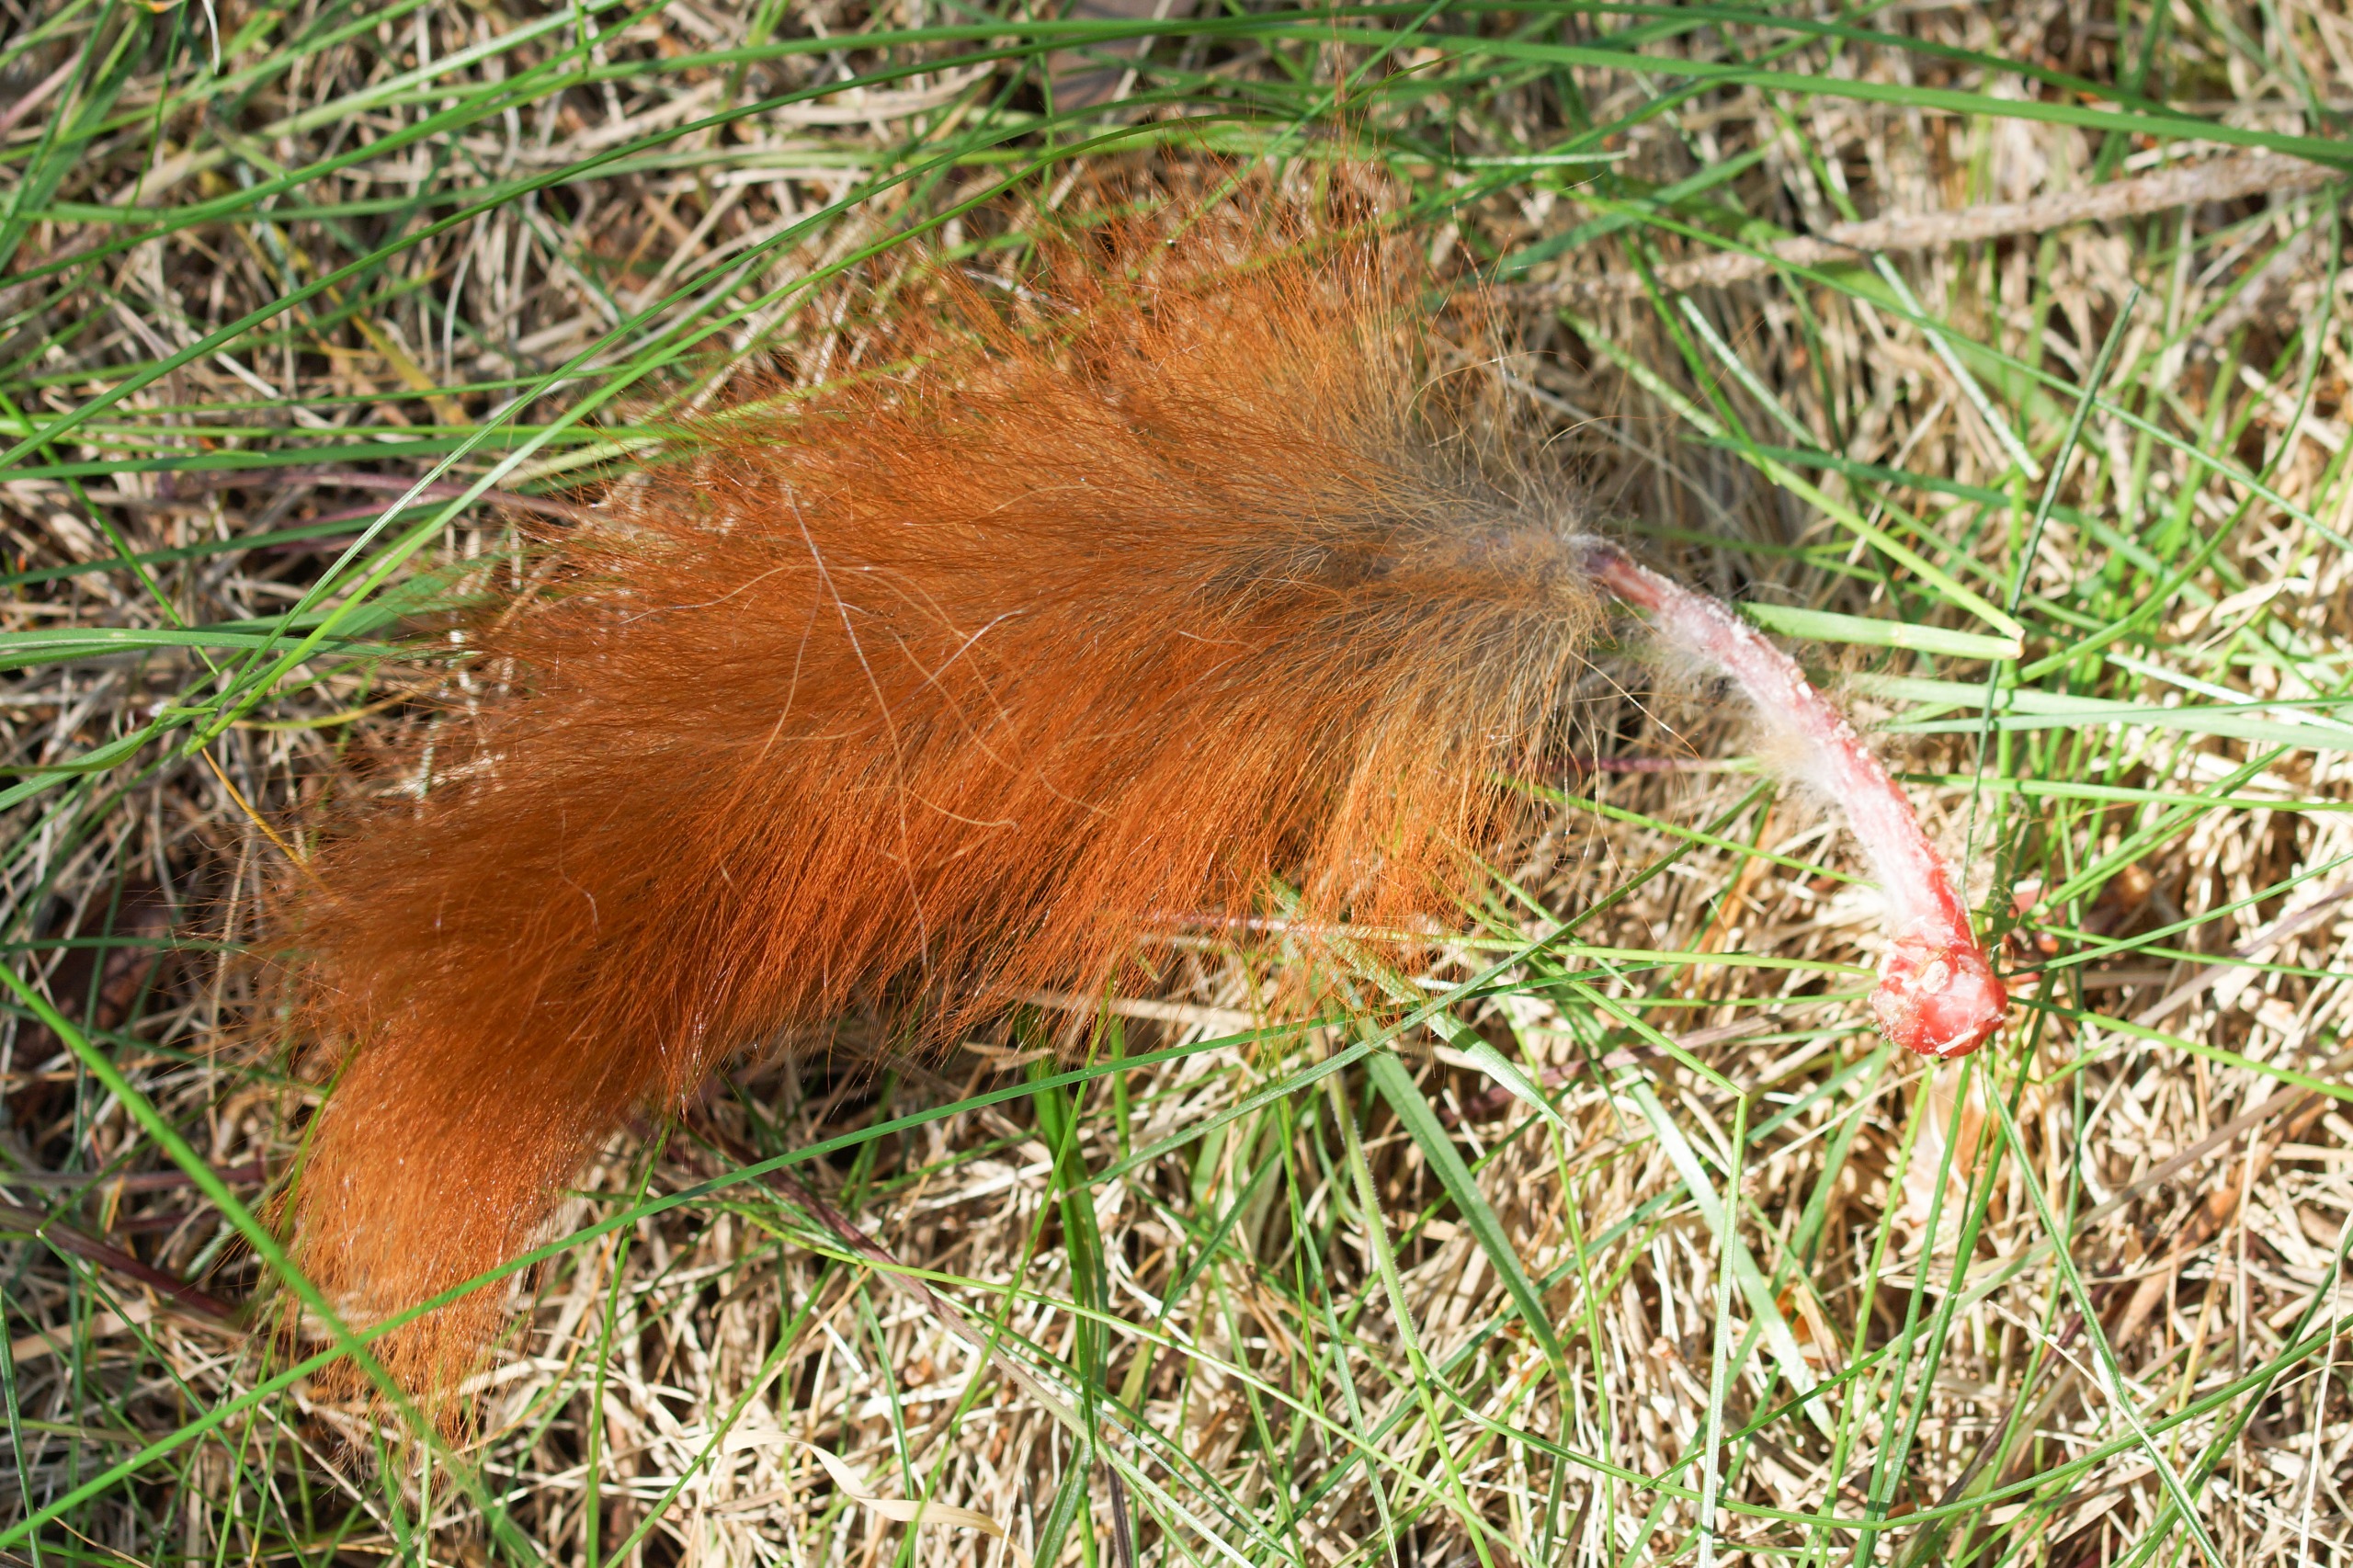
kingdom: Animalia
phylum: Chordata
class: Mammalia
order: Rodentia
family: Sciuridae
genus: Sciurus
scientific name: Sciurus vulgaris
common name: Egern
